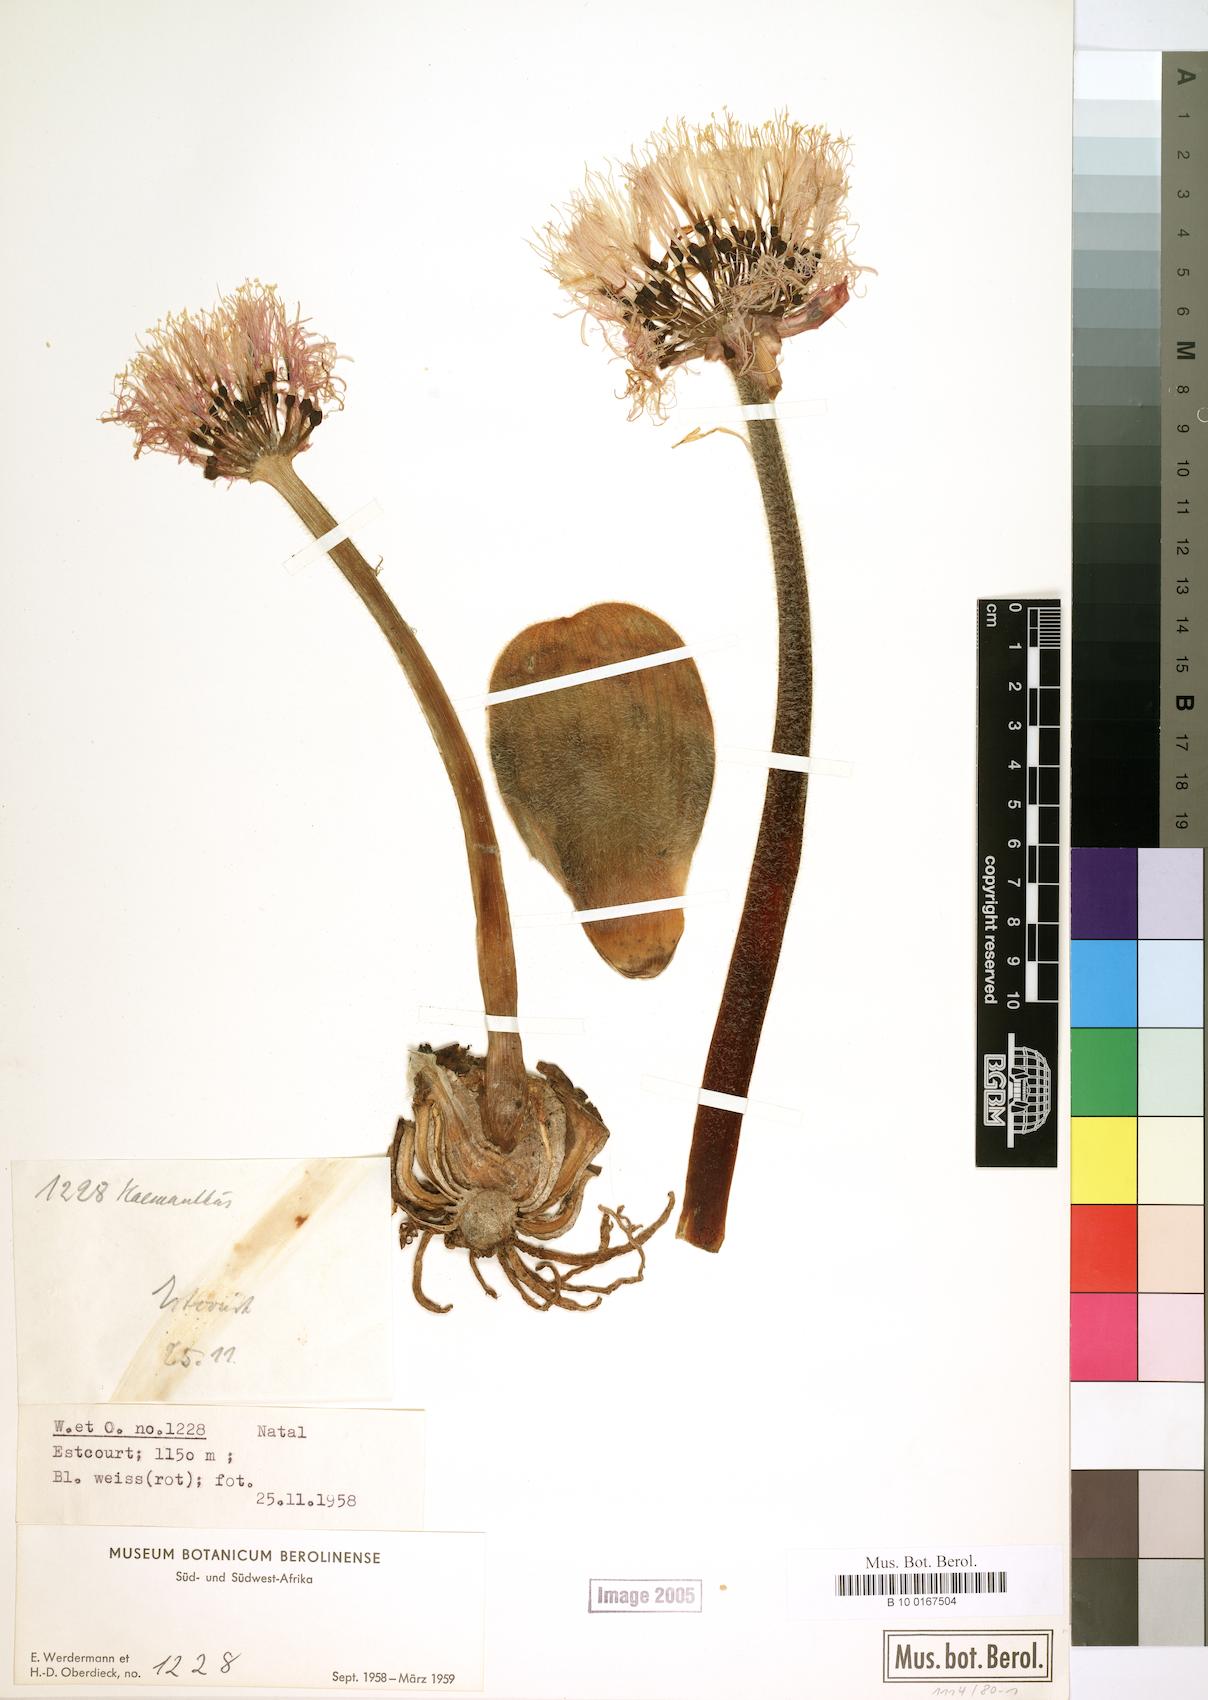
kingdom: Plantae
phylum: Tracheophyta
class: Liliopsida
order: Asparagales
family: Amaryllidaceae
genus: Haemanthus
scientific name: Haemanthus
